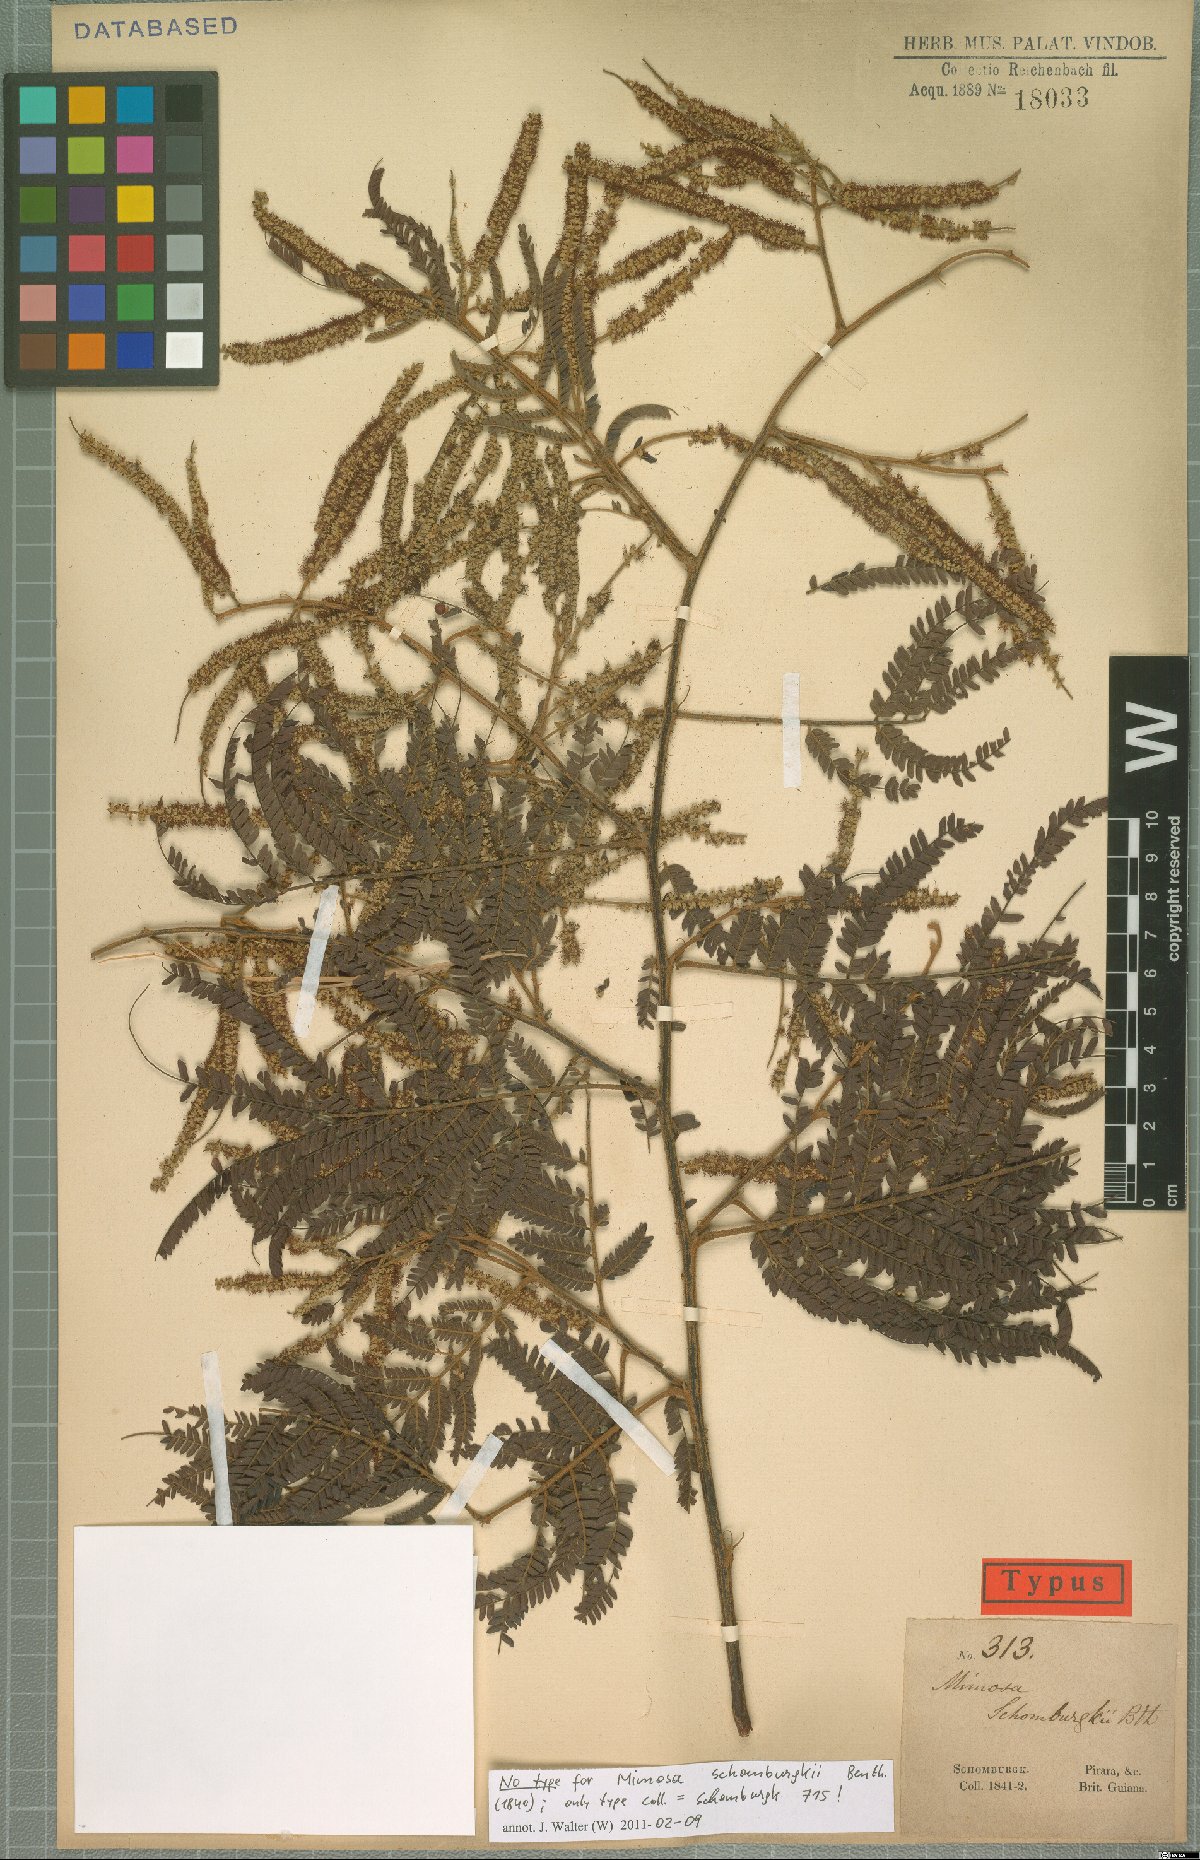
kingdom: Plantae
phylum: Tracheophyta
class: Magnoliopsida
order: Fabales
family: Fabaceae
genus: Mimosa
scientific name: Mimosa schomburgkii
